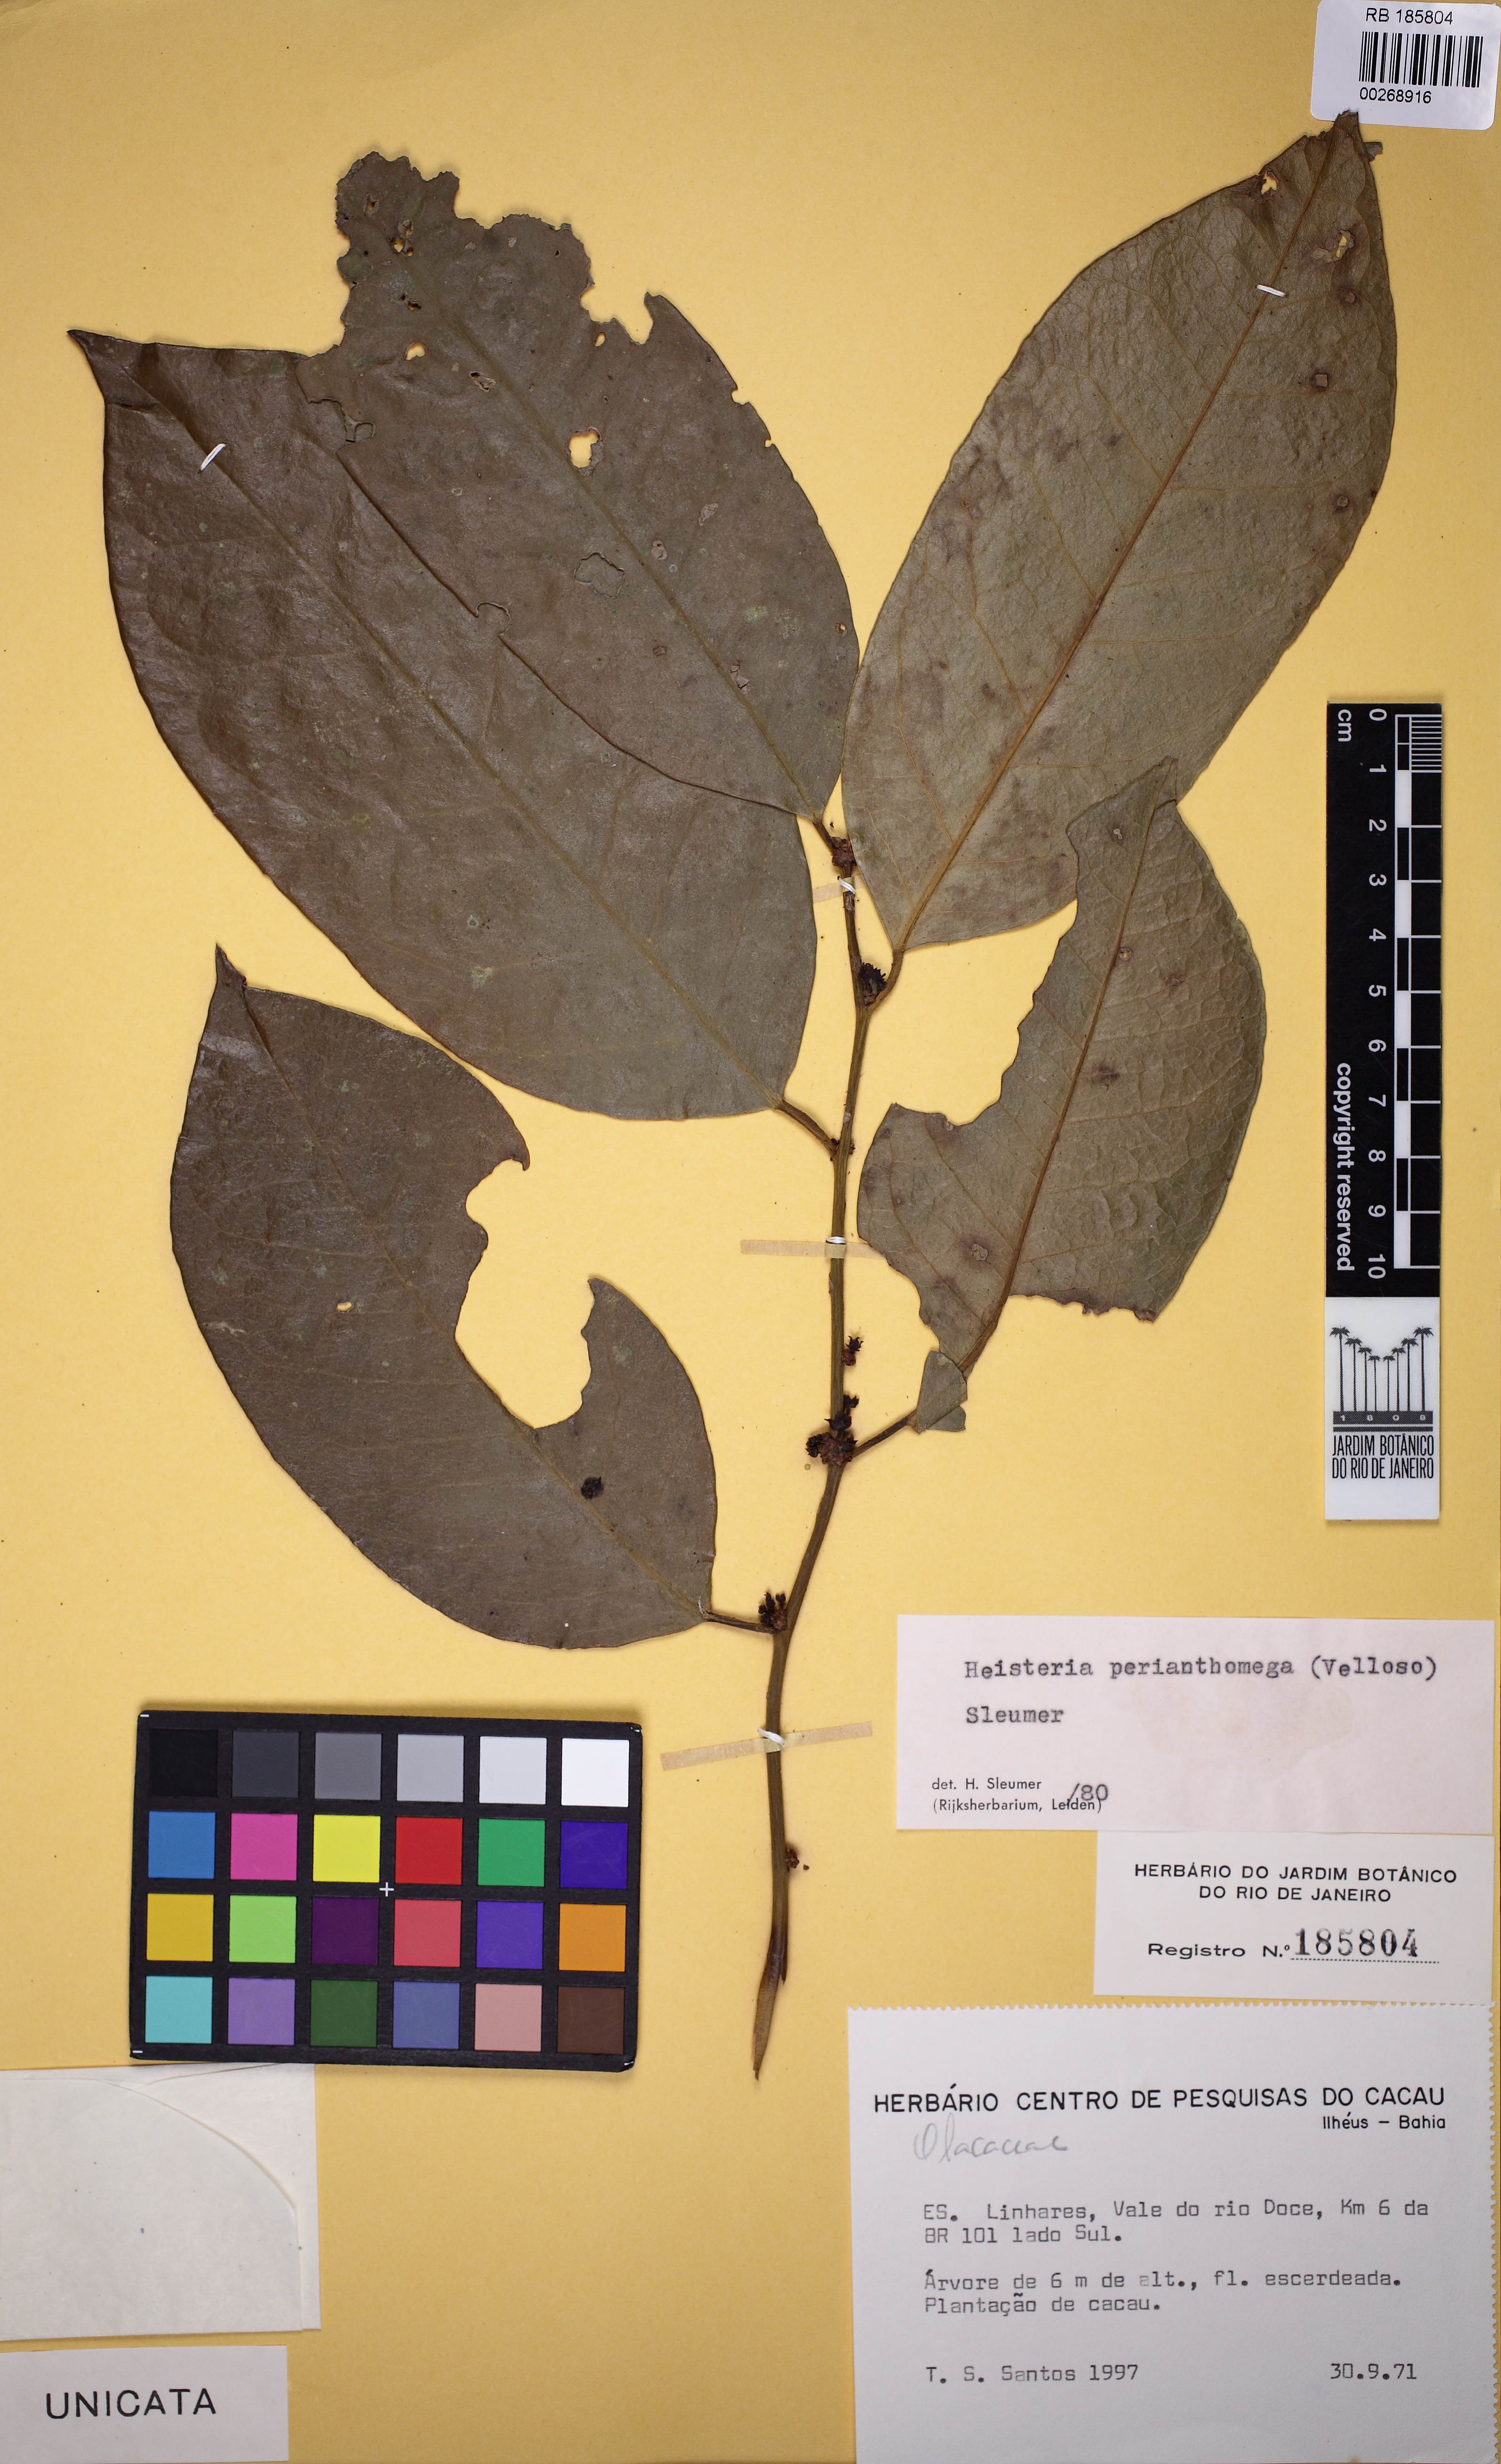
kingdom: Plantae
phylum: Tracheophyta
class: Magnoliopsida
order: Santalales
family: Erythropalaceae
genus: Heisteria
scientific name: Heisteria perianthomega
